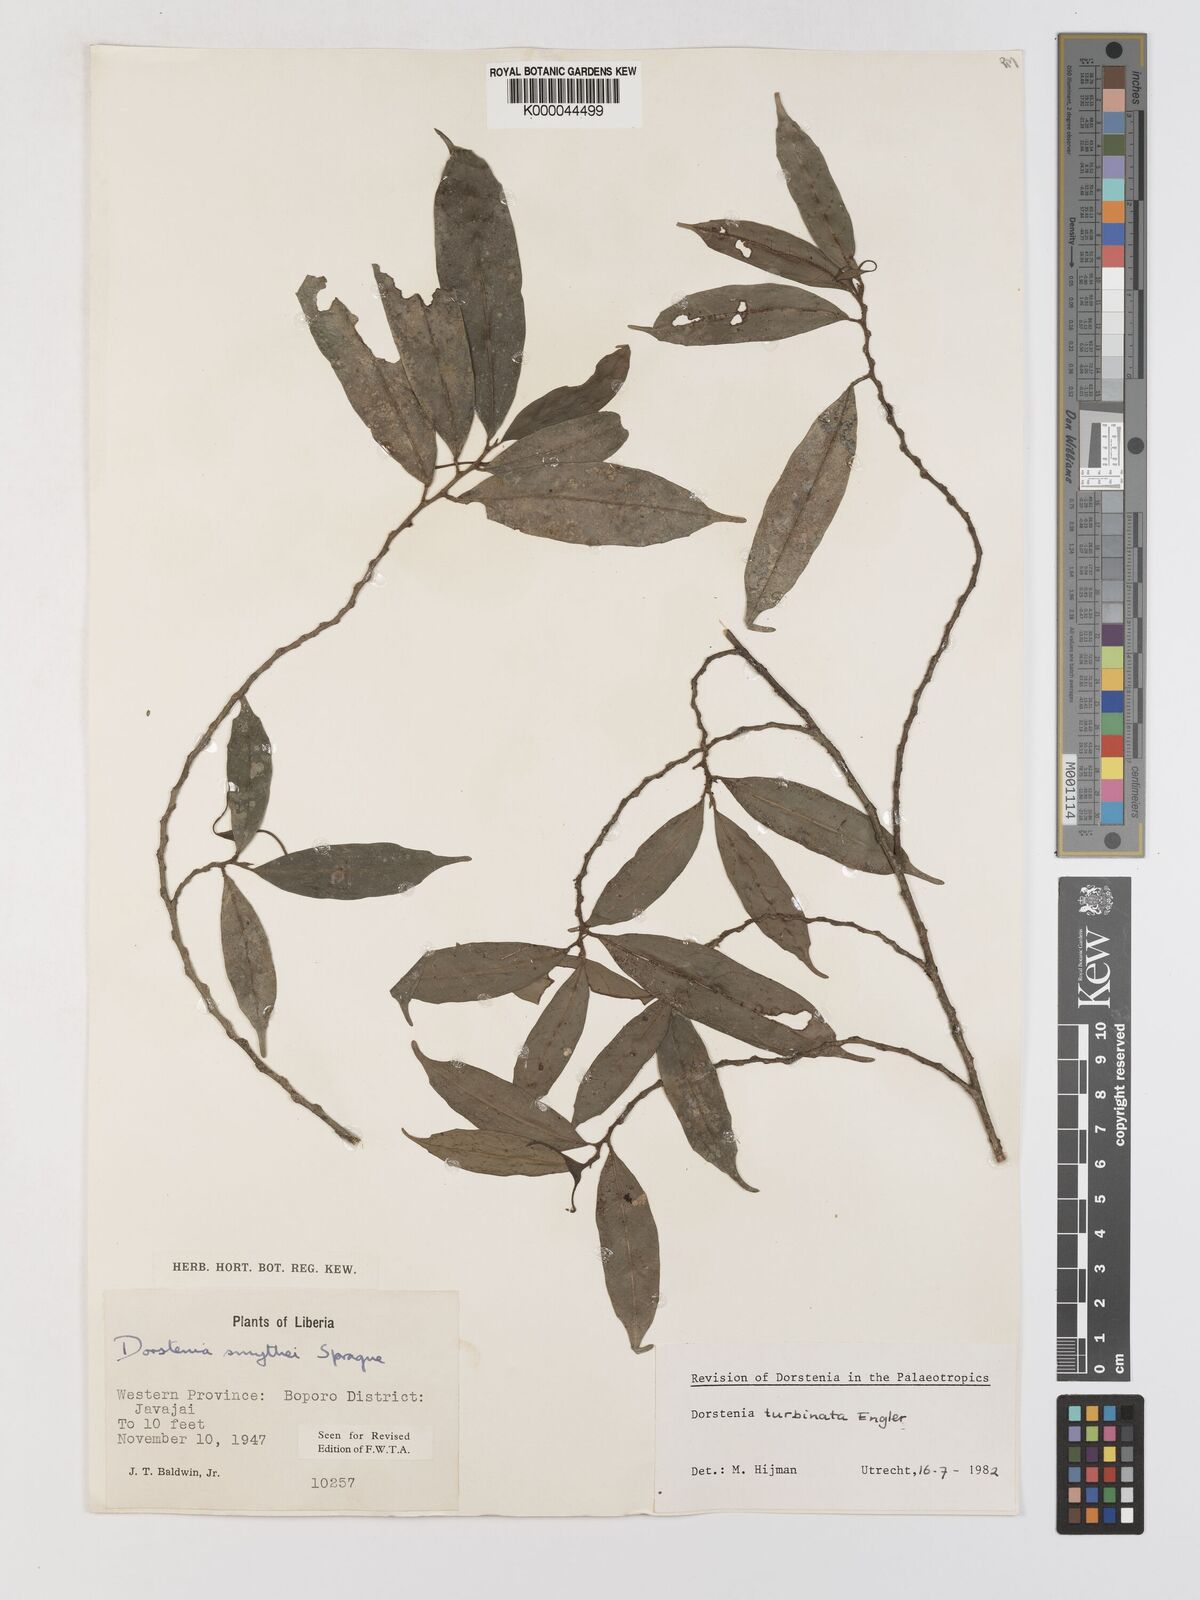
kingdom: Plantae
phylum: Tracheophyta
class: Magnoliopsida
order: Rosales
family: Moraceae
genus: Hijmania
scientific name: Hijmania turbinata
